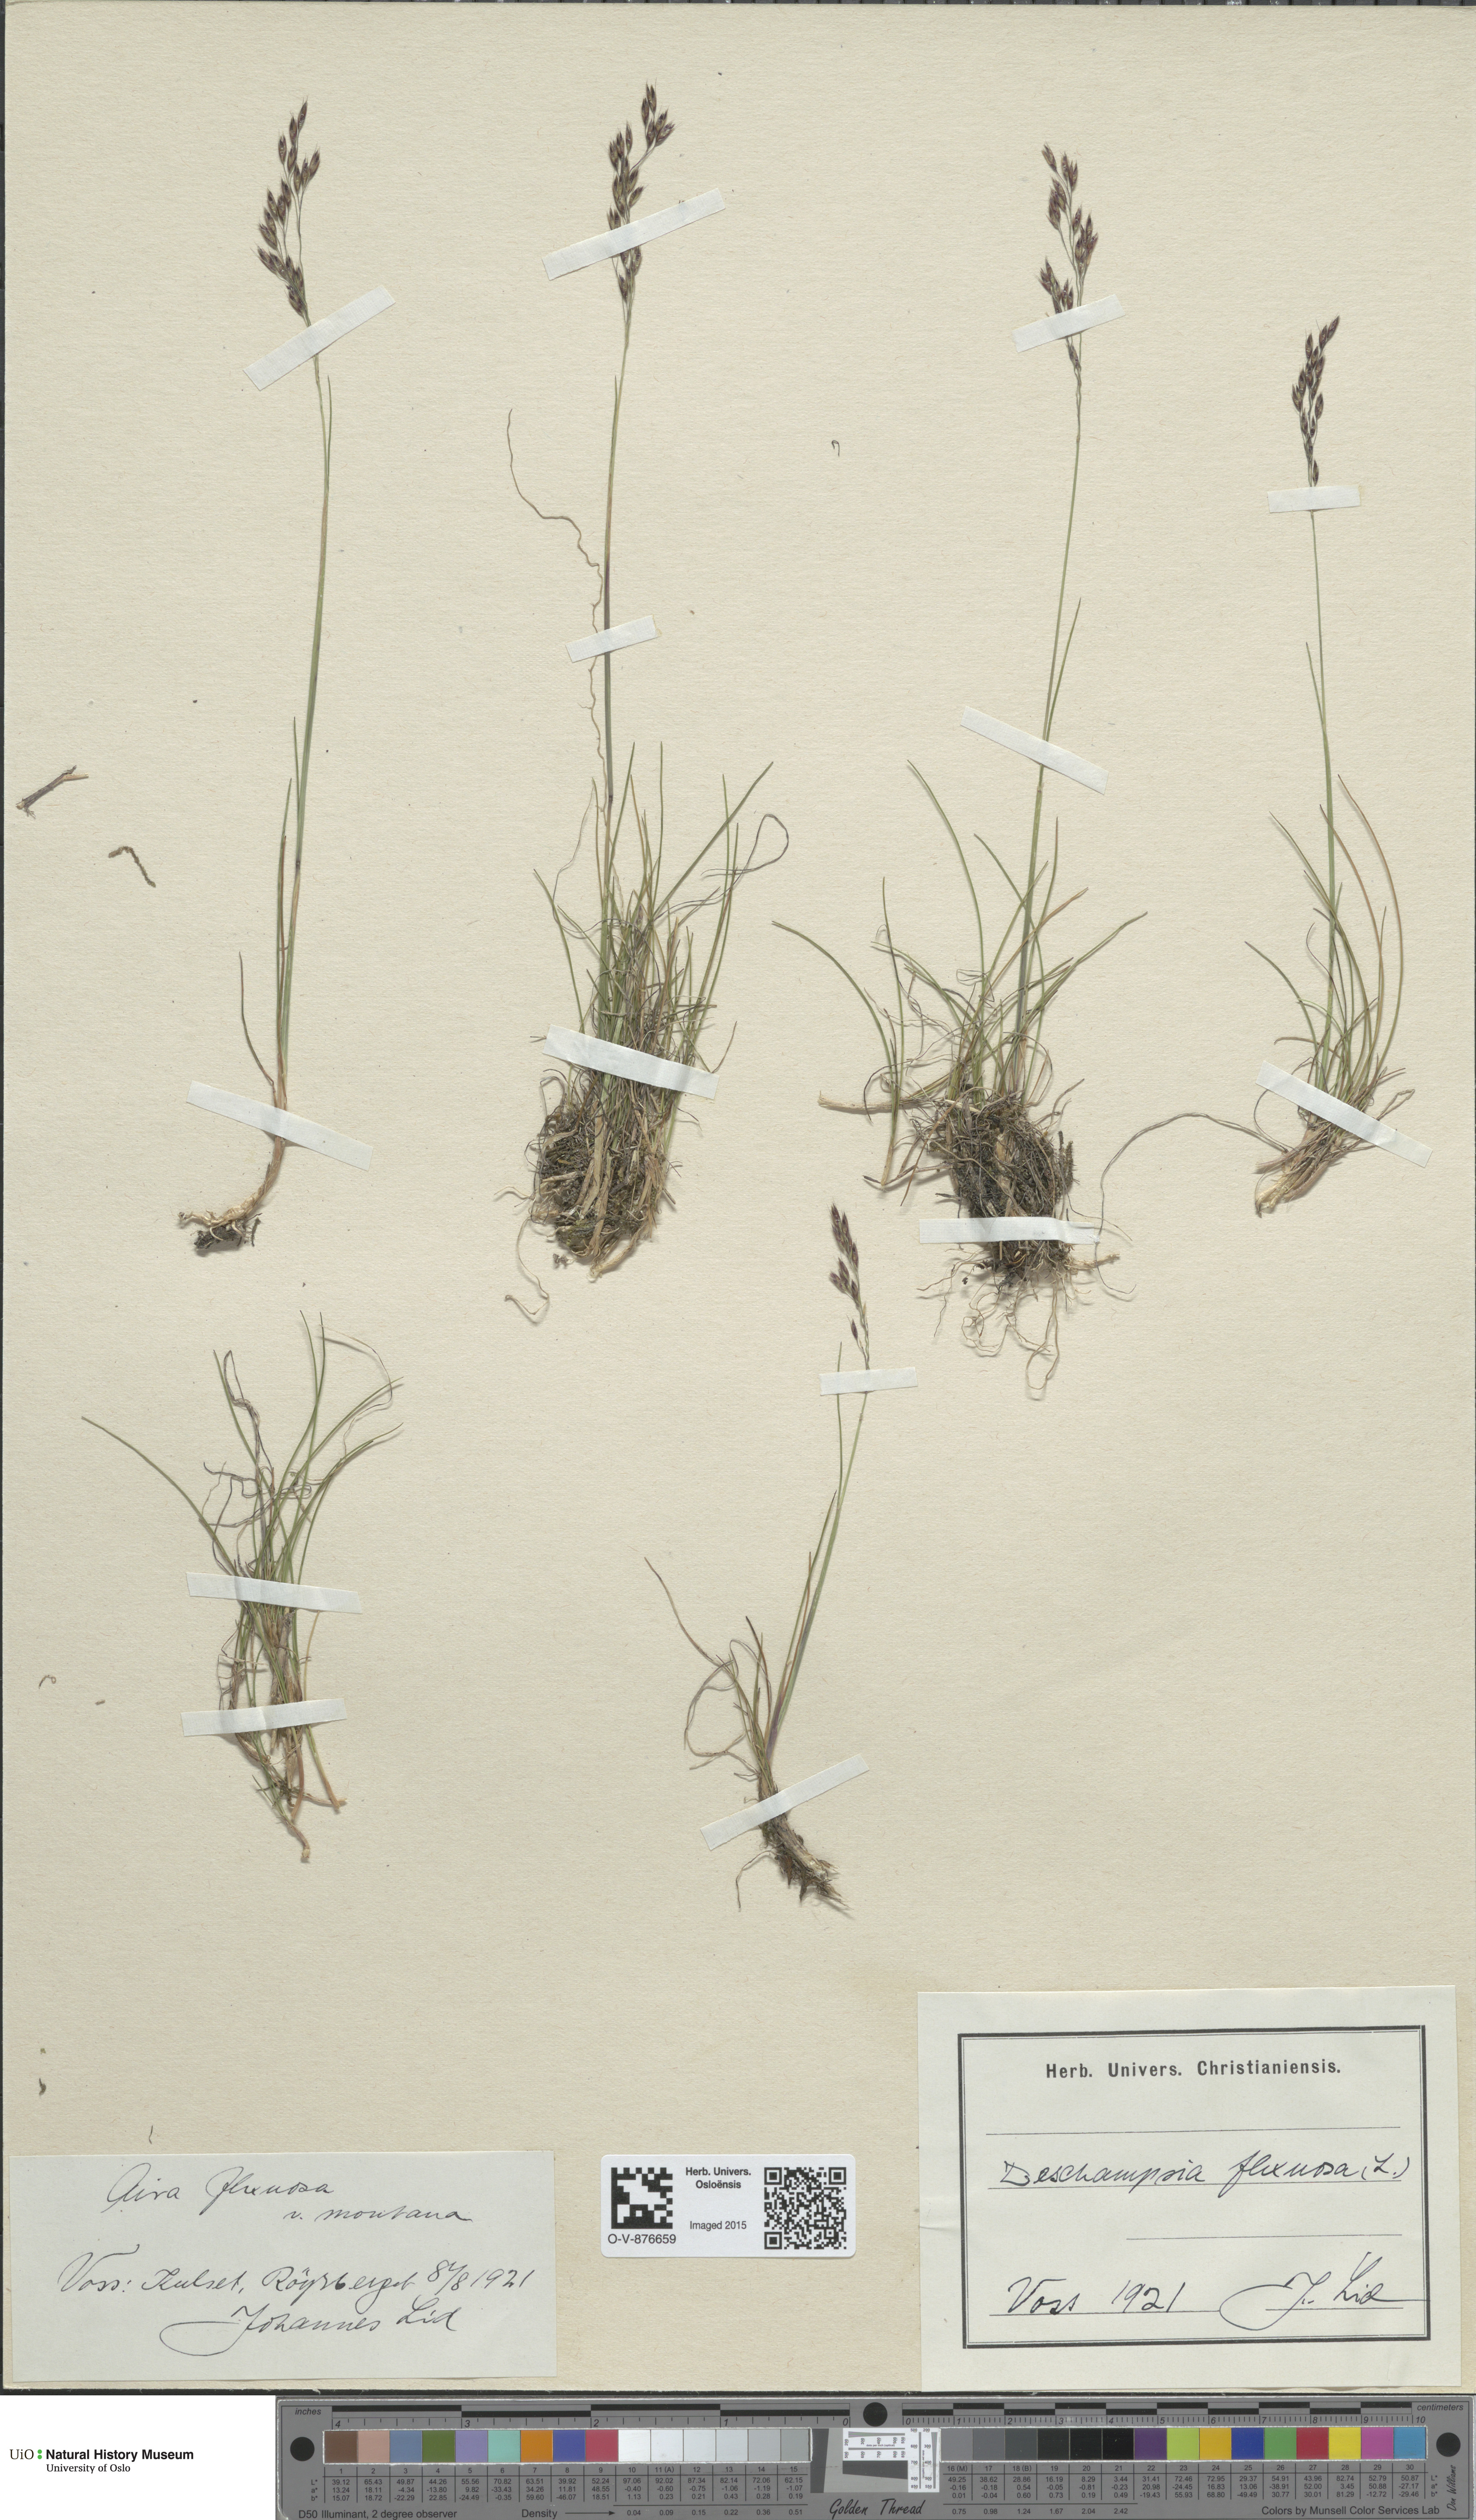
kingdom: Plantae
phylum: Tracheophyta
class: Liliopsida
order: Poales
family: Poaceae
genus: Avenella
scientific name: Avenella flexuosa
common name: Wavy hairgrass
